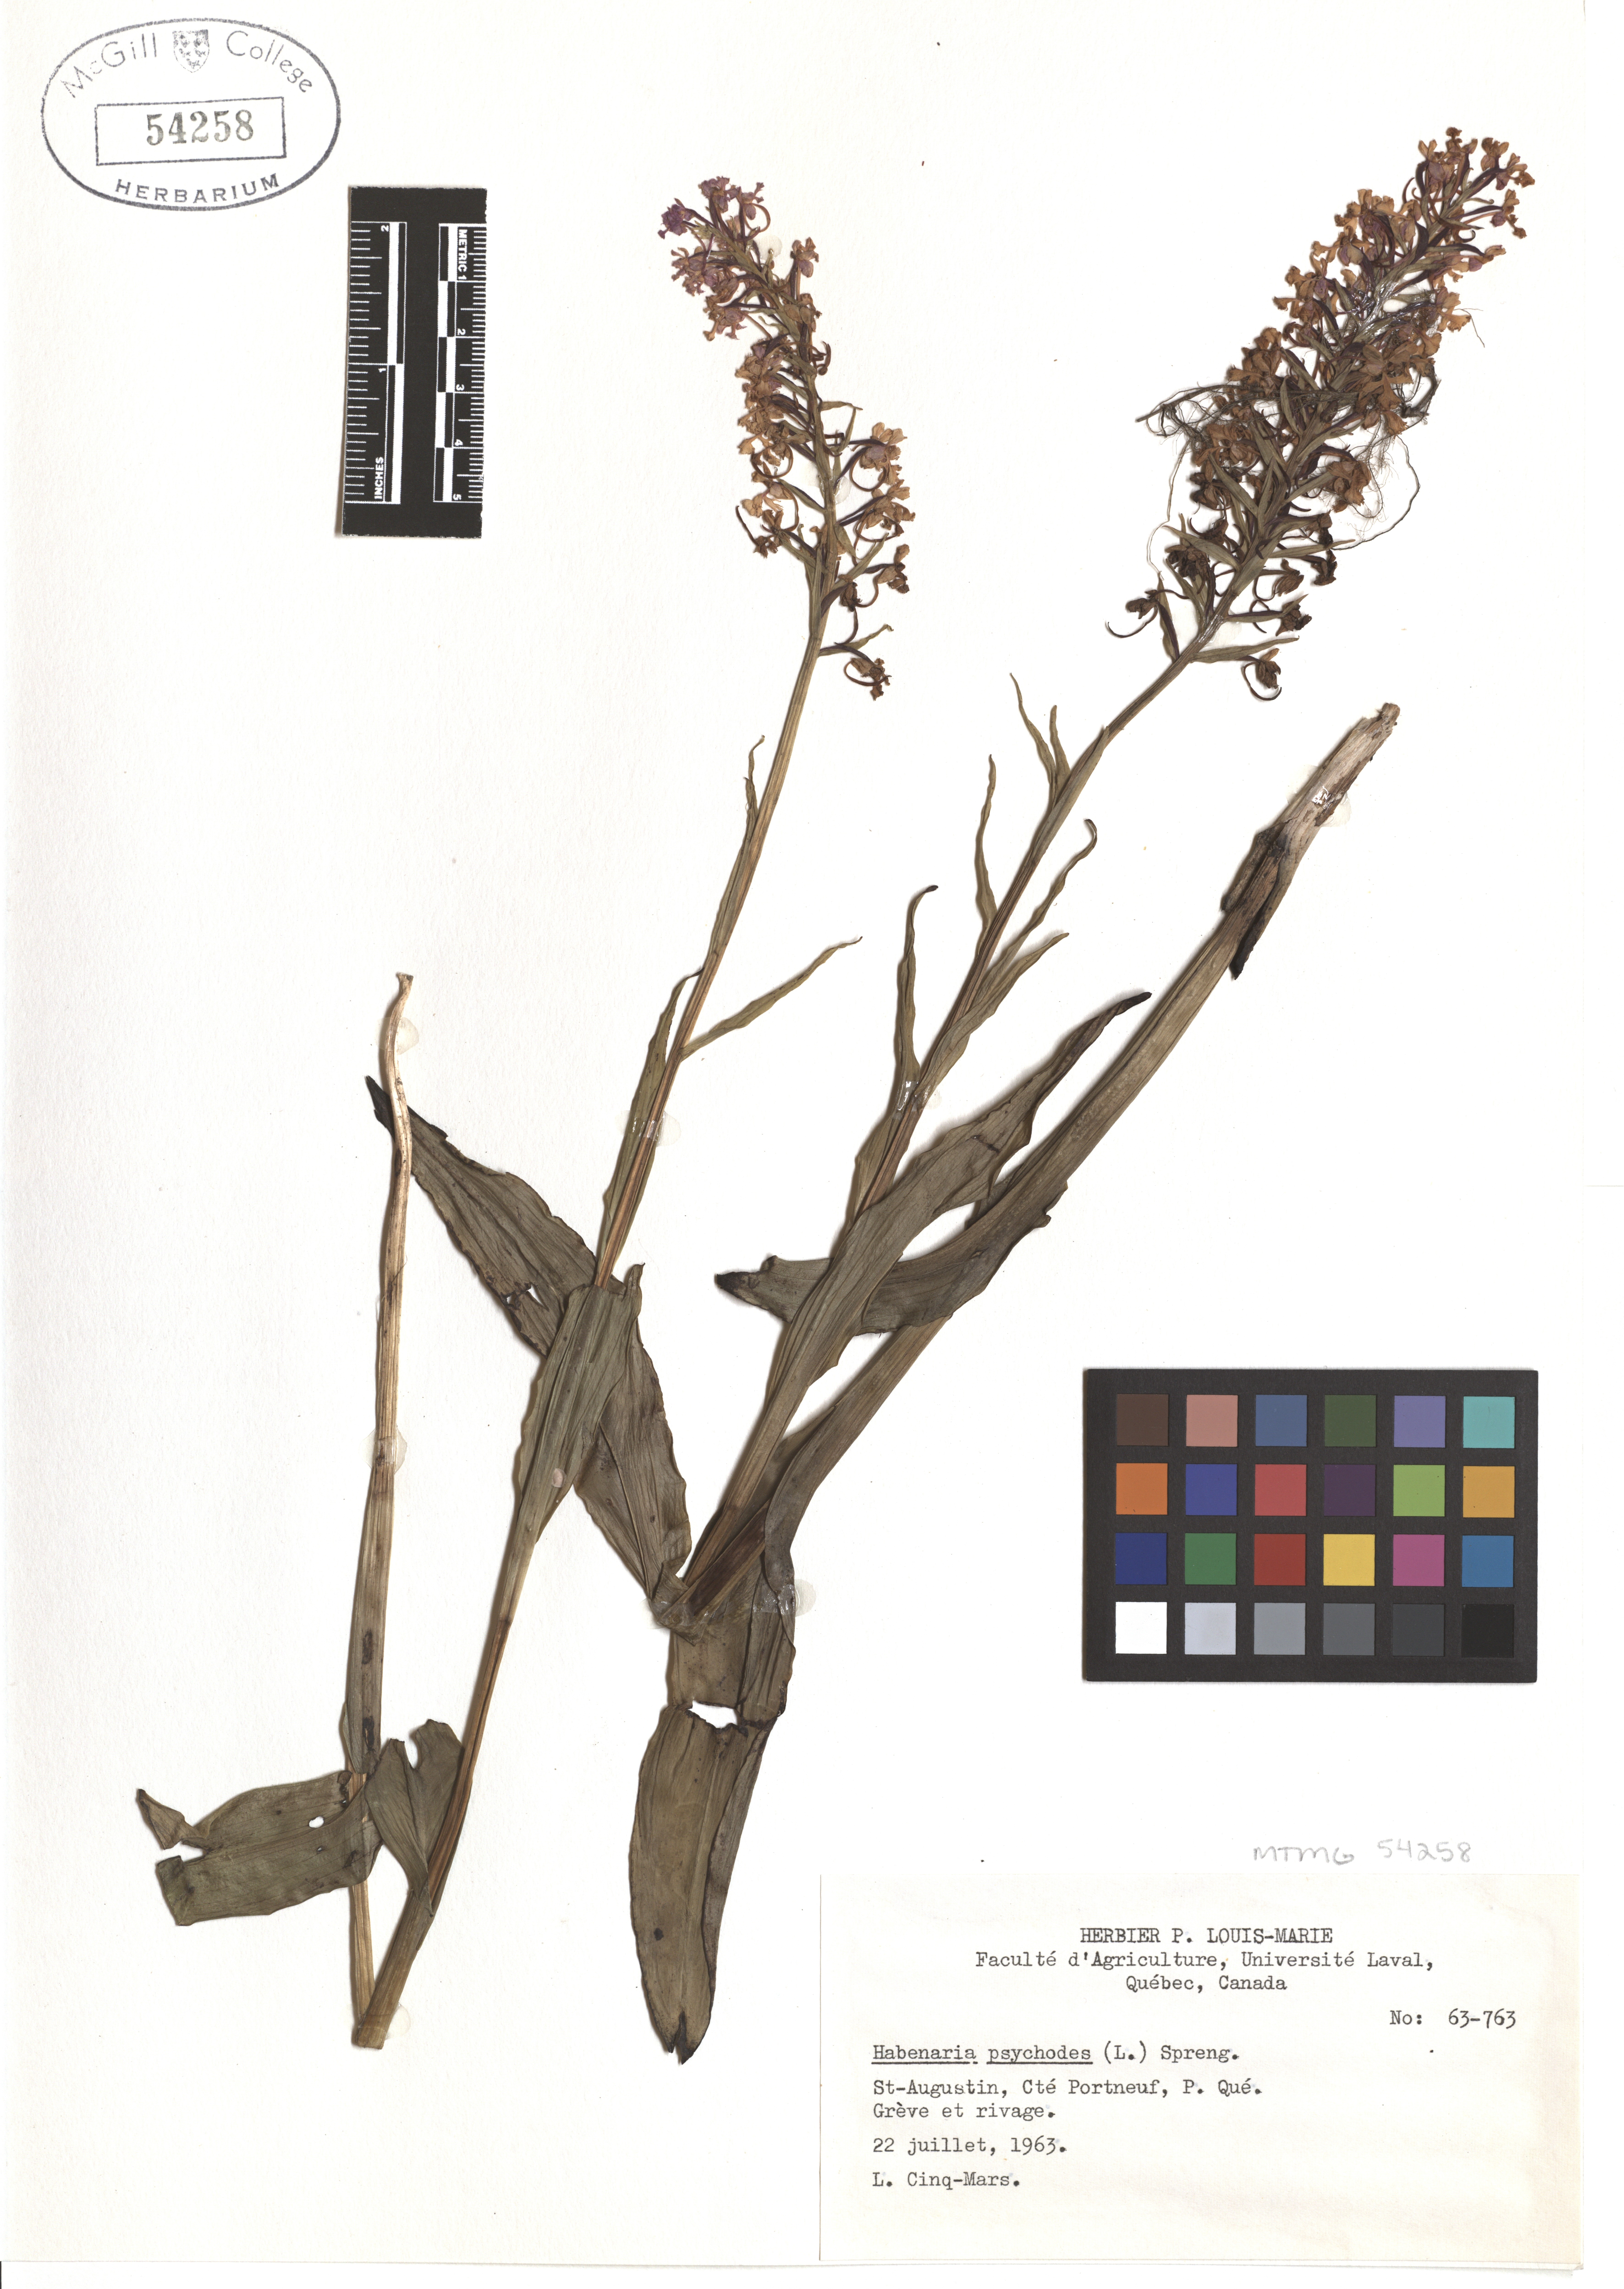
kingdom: Plantae
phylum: Tracheophyta
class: Liliopsida
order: Asparagales
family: Orchidaceae
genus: Platanthera
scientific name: Platanthera psycodes
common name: Lesser purple fringed orchid
